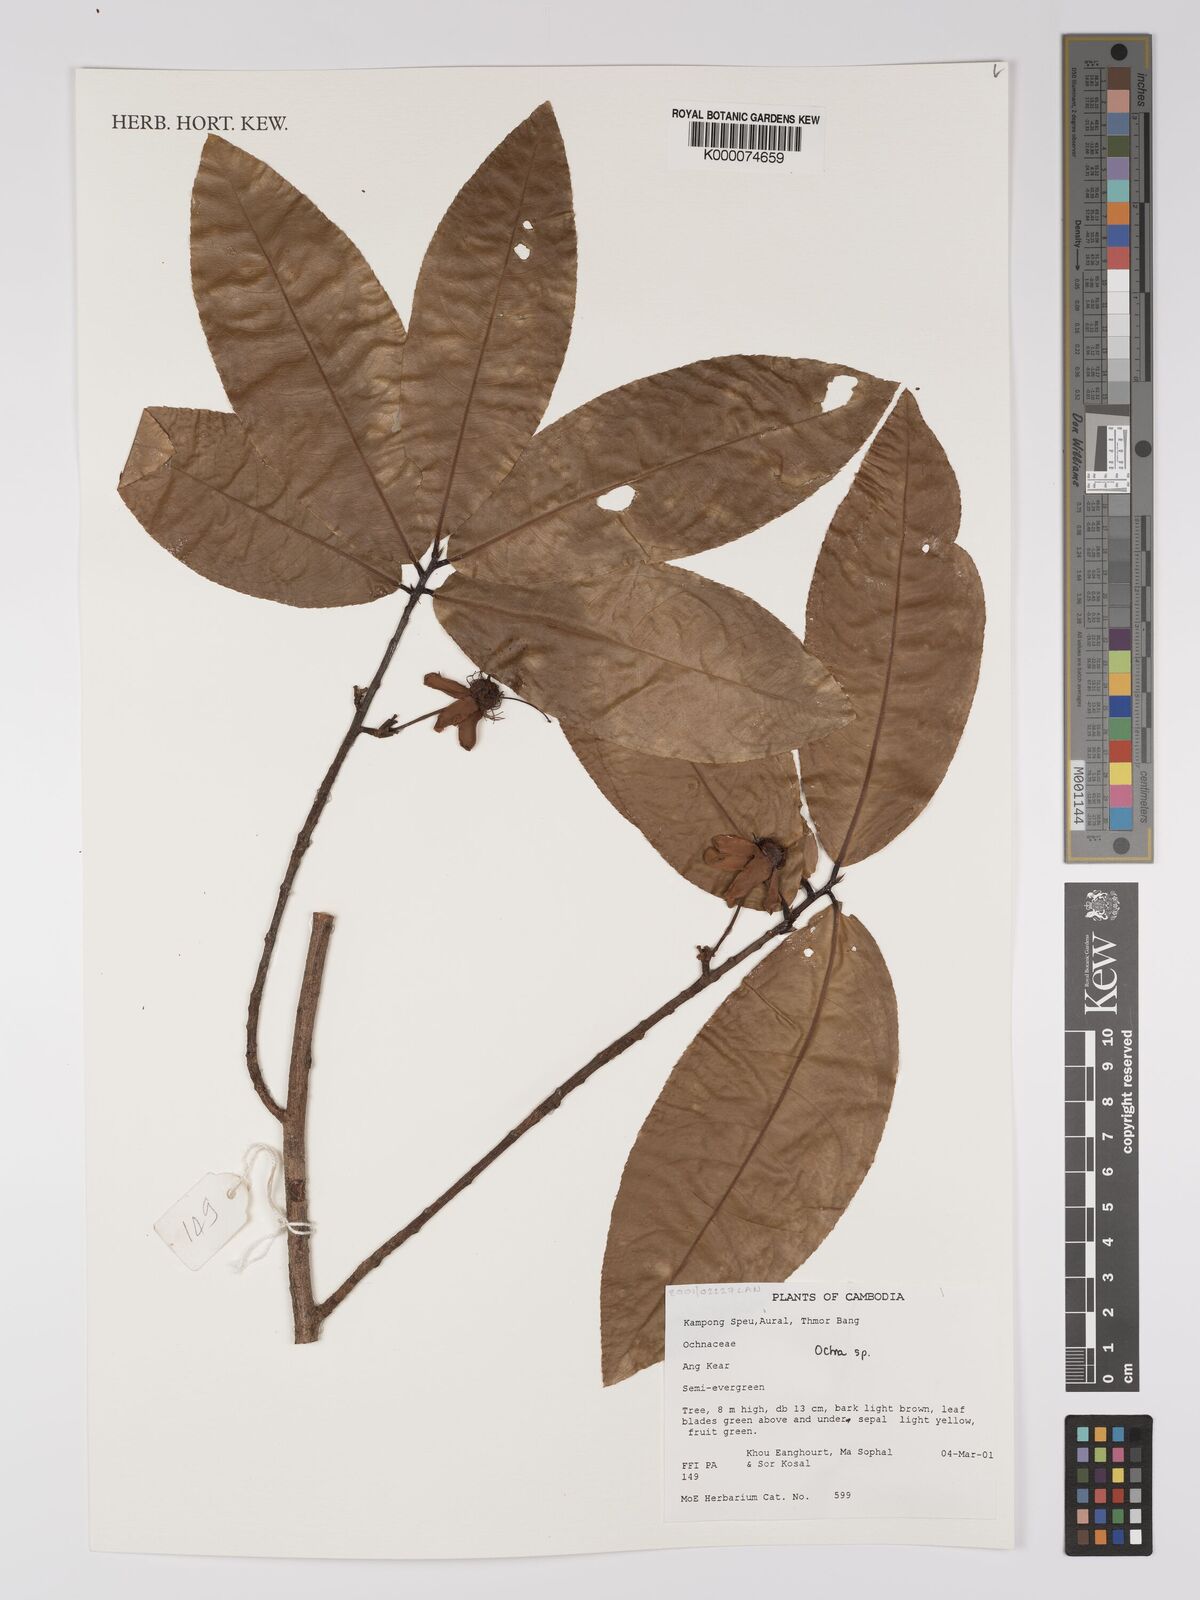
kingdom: Plantae
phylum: Tracheophyta
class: Magnoliopsida
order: Malpighiales
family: Ochnaceae
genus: Ochna
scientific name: Ochna
